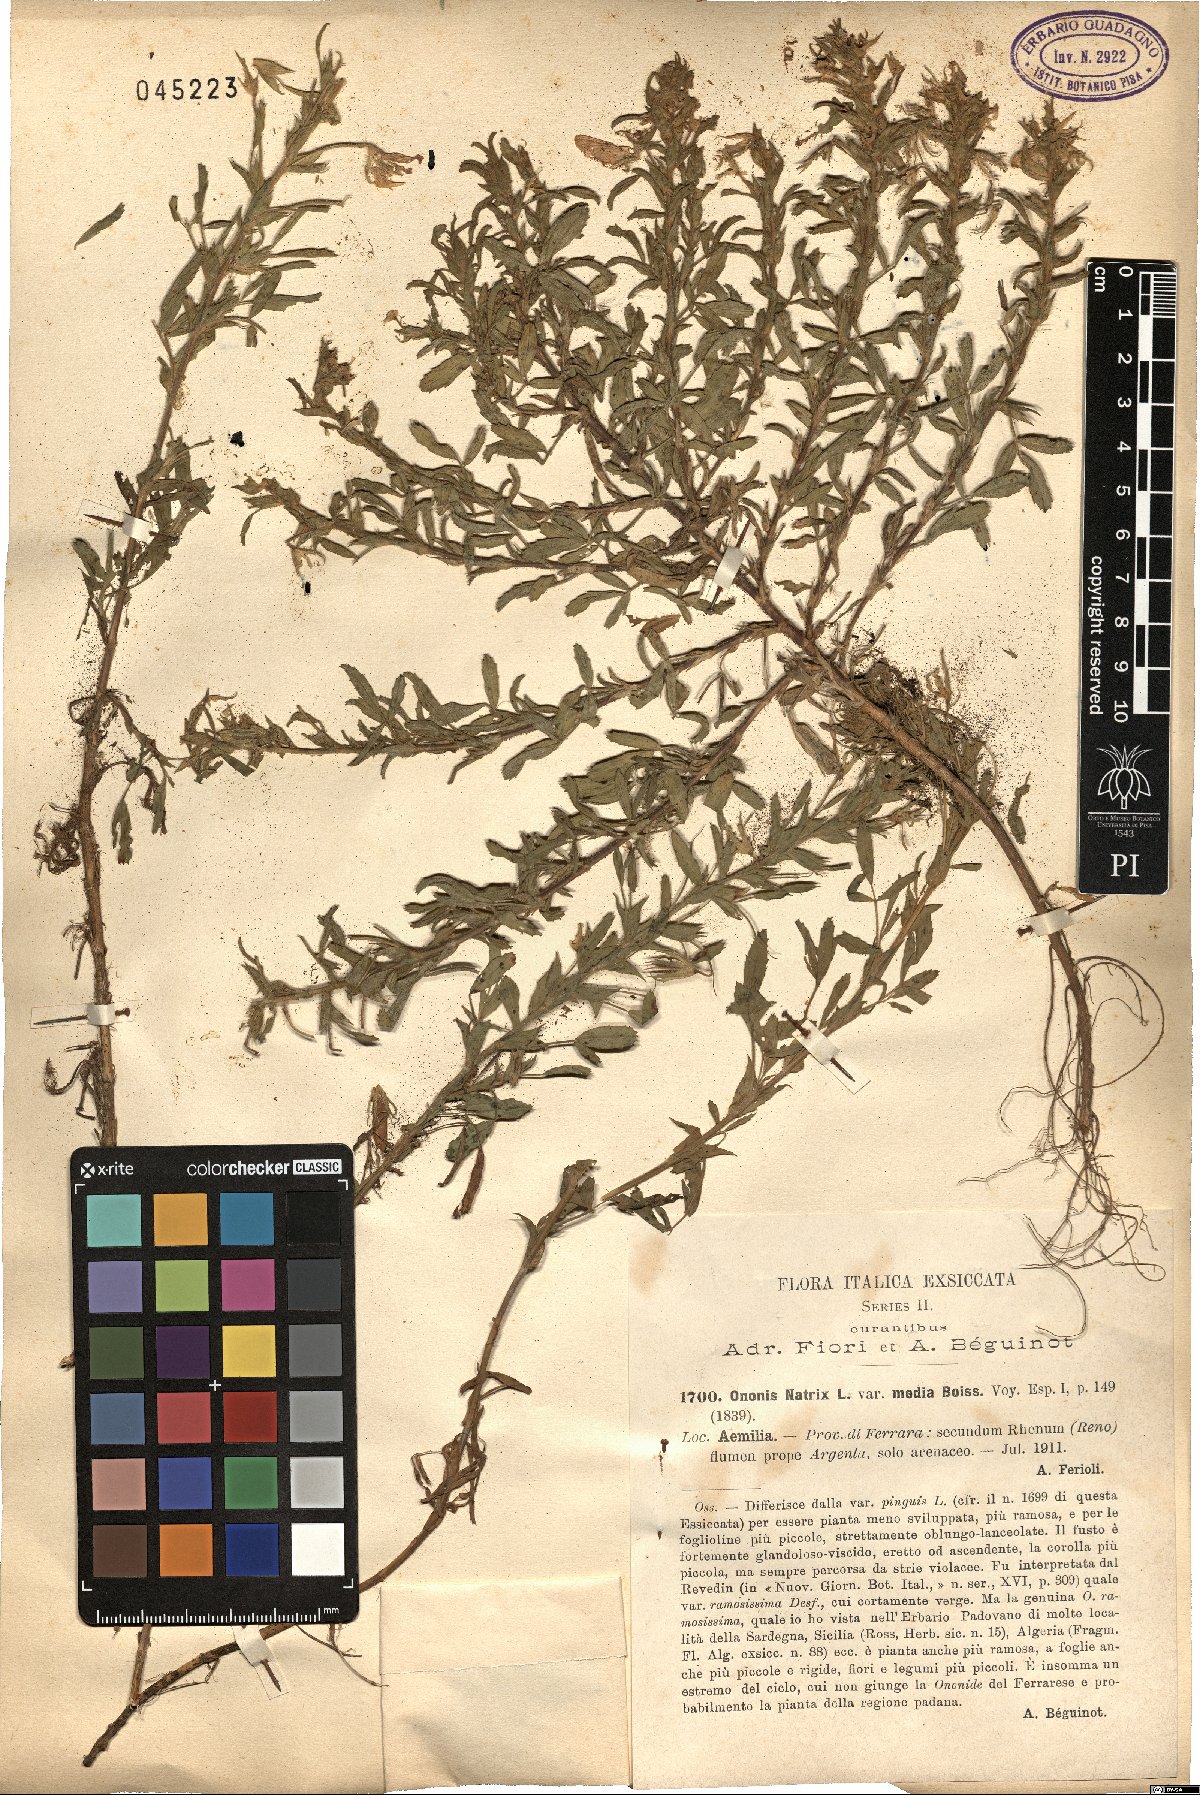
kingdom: Plantae
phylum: Tracheophyta
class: Magnoliopsida
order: Fabales
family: Fabaceae
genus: Ononis
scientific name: Ononis natrix
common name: Yellow restharrow
